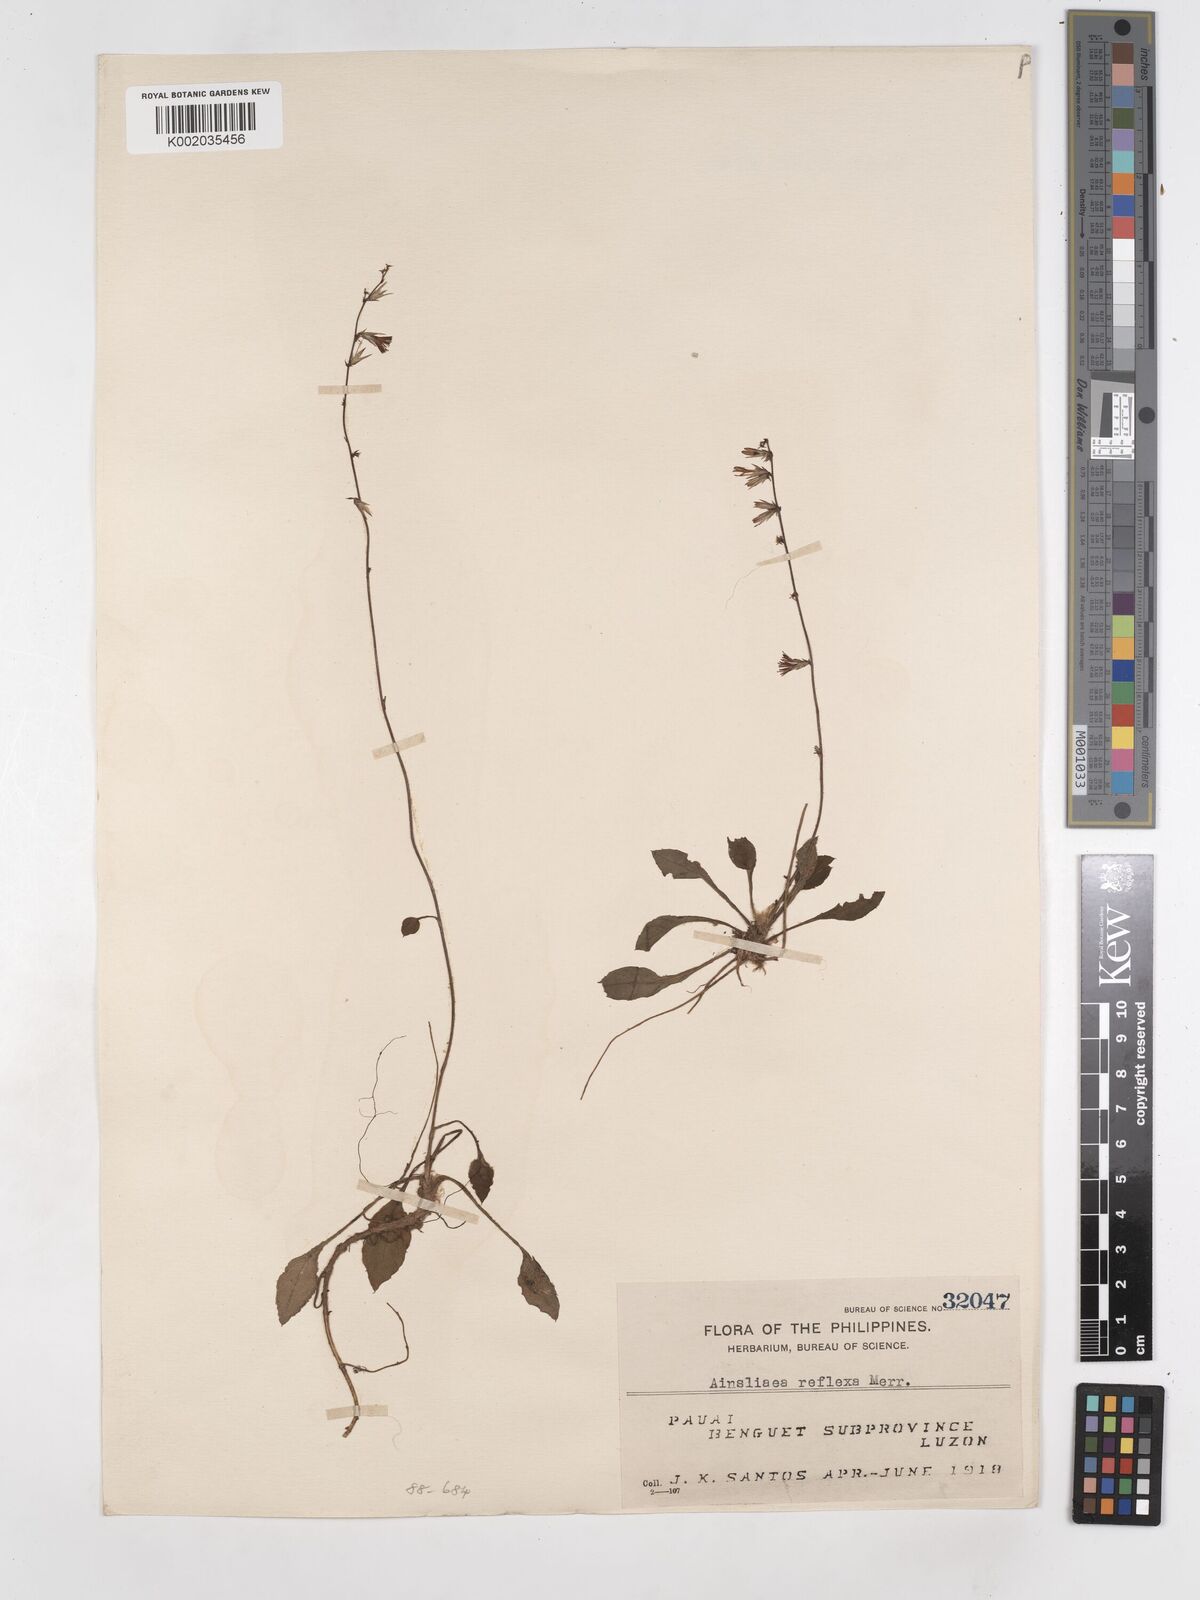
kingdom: Plantae
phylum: Tracheophyta
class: Magnoliopsida
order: Asterales
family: Asteraceae
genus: Ainsliaea
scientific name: Ainsliaea reflexa
